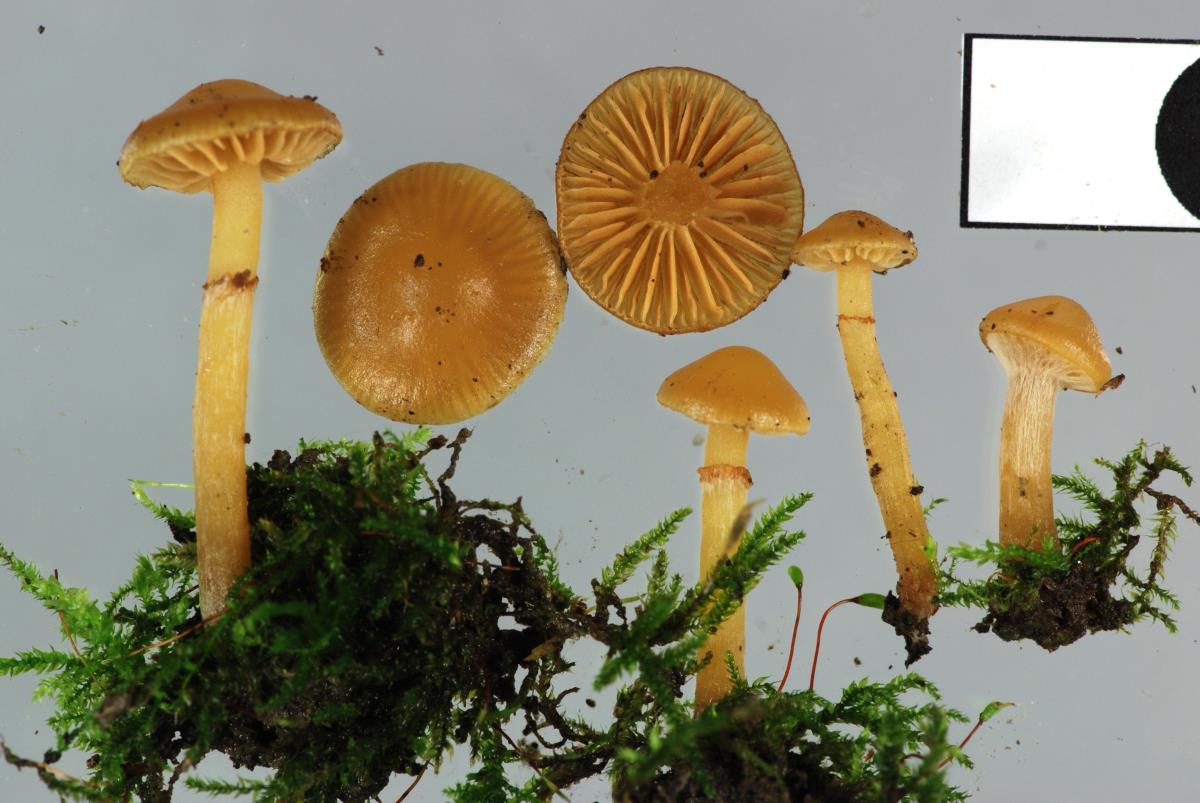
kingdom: Fungi
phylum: Basidiomycota
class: Agaricomycetes
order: Agaricales
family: Hymenogastraceae
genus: Galerina
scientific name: Galerina
